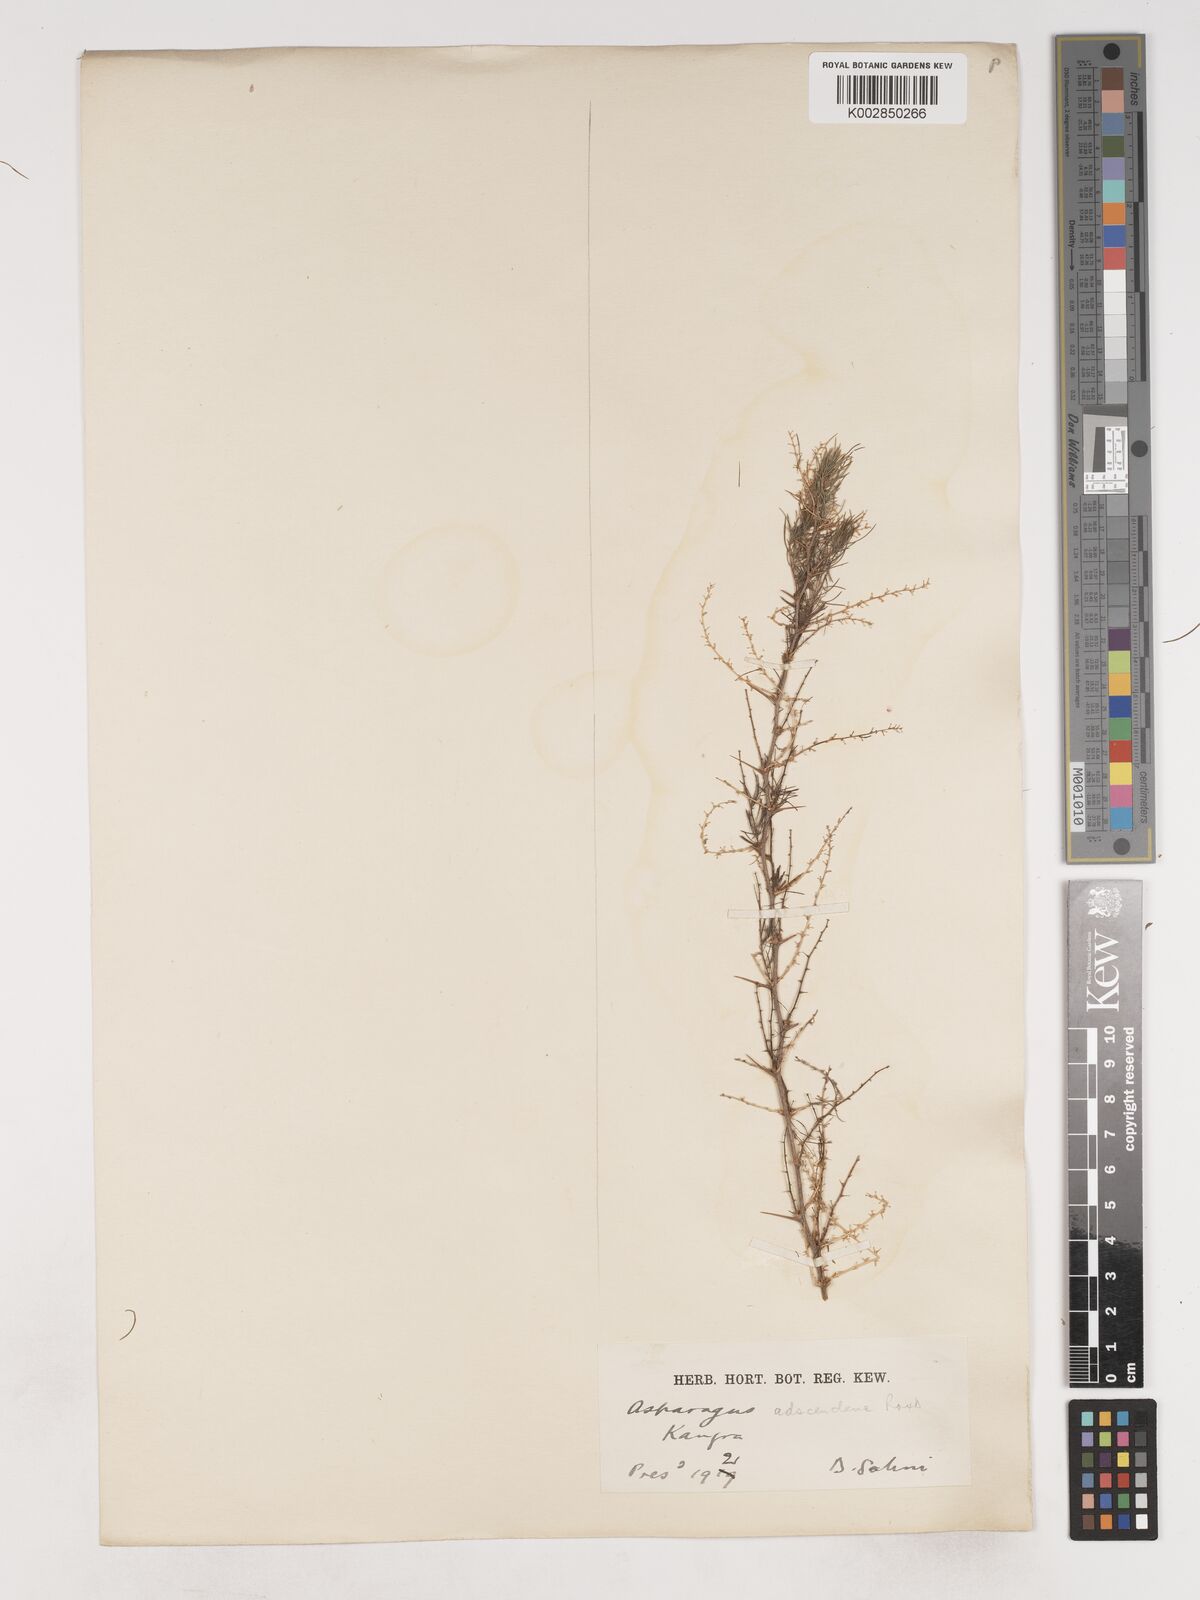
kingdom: Plantae
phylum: Tracheophyta
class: Liliopsida
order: Asparagales
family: Asparagaceae
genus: Asparagus
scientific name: Asparagus
